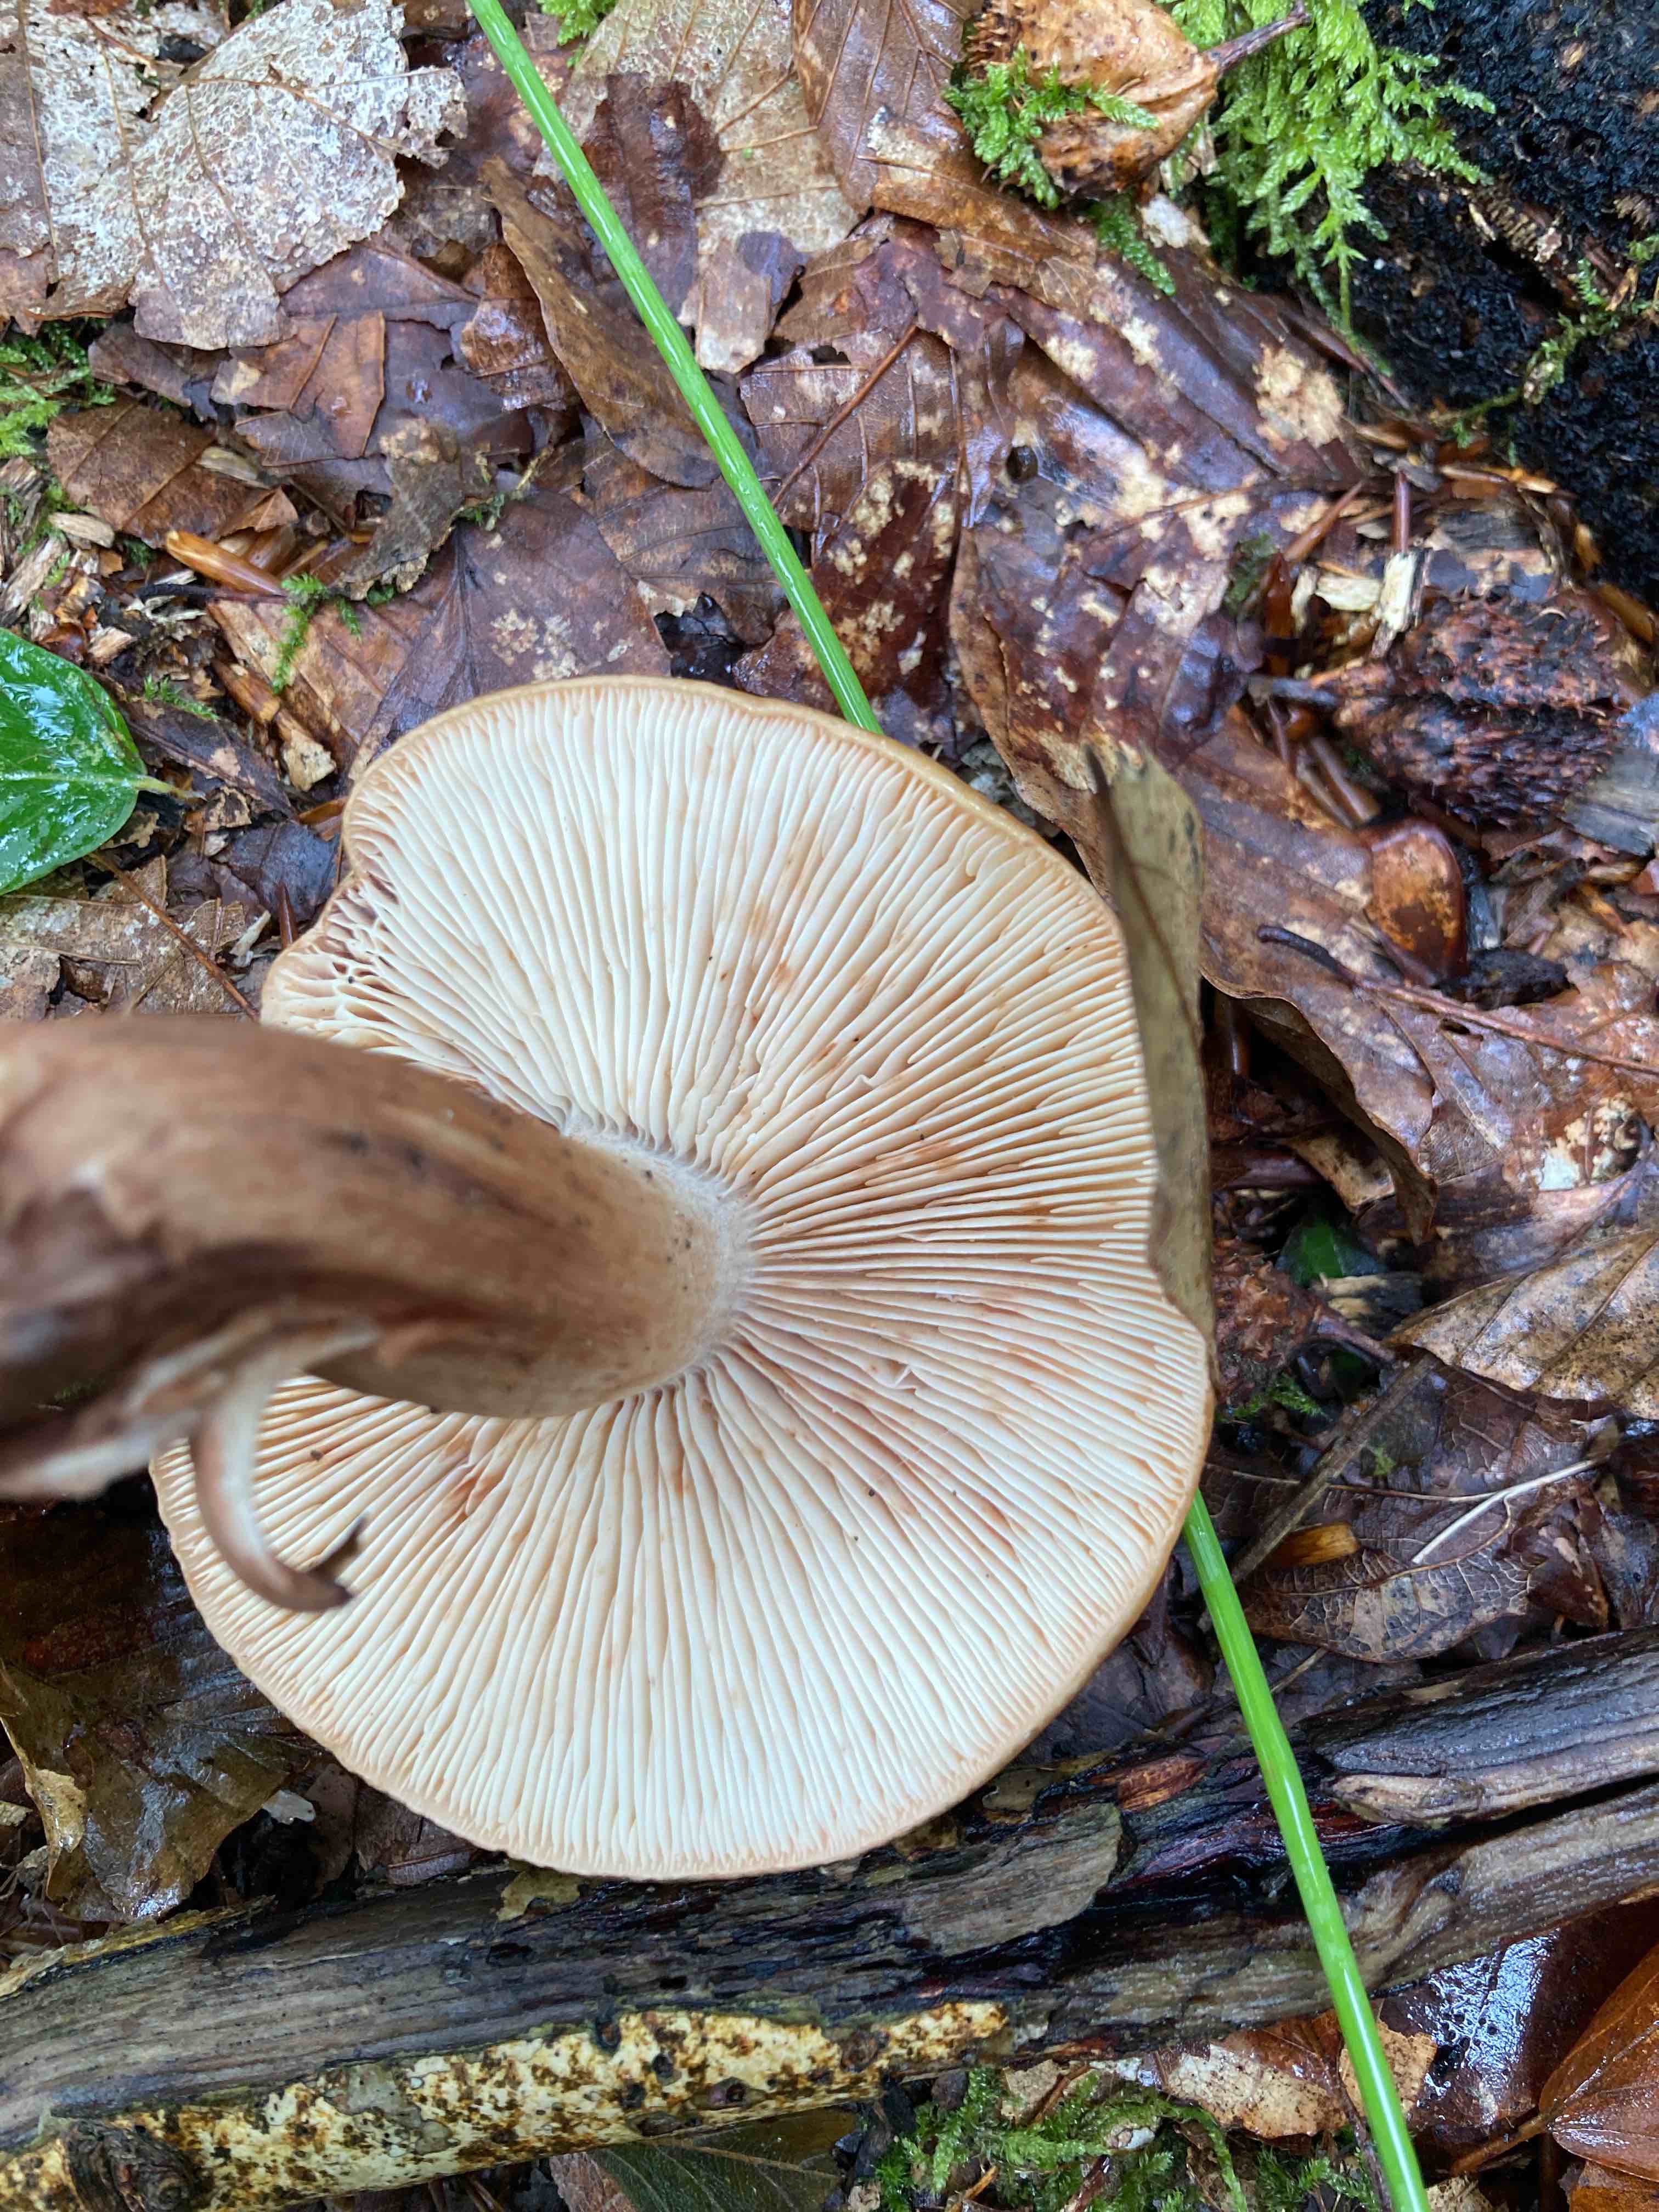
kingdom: Fungi
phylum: Basidiomycota
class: Agaricomycetes
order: Agaricales
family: Tricholomataceae
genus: Tricholoma
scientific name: Tricholoma ustale
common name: sveden ridderhat
